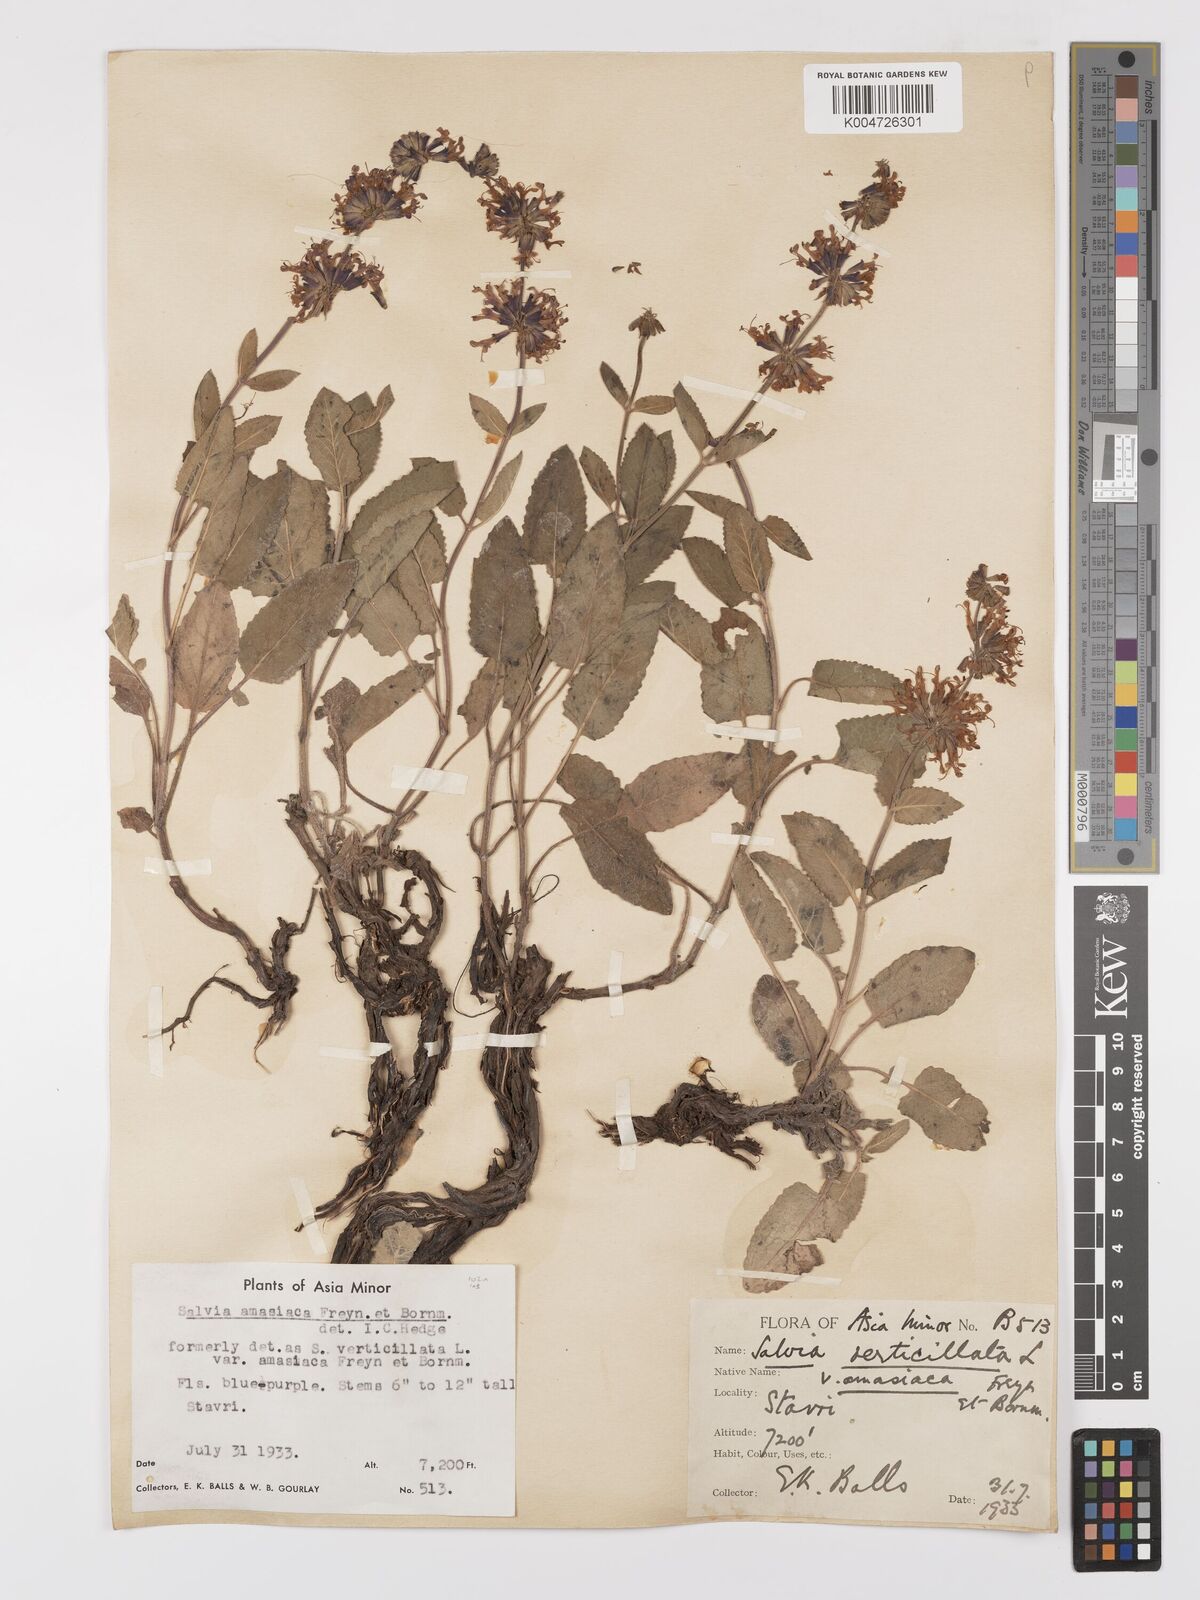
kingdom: Plantae
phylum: Tracheophyta
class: Magnoliopsida
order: Lamiales
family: Lamiaceae
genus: Salvia
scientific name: Salvia verticillata
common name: Whorled clary
